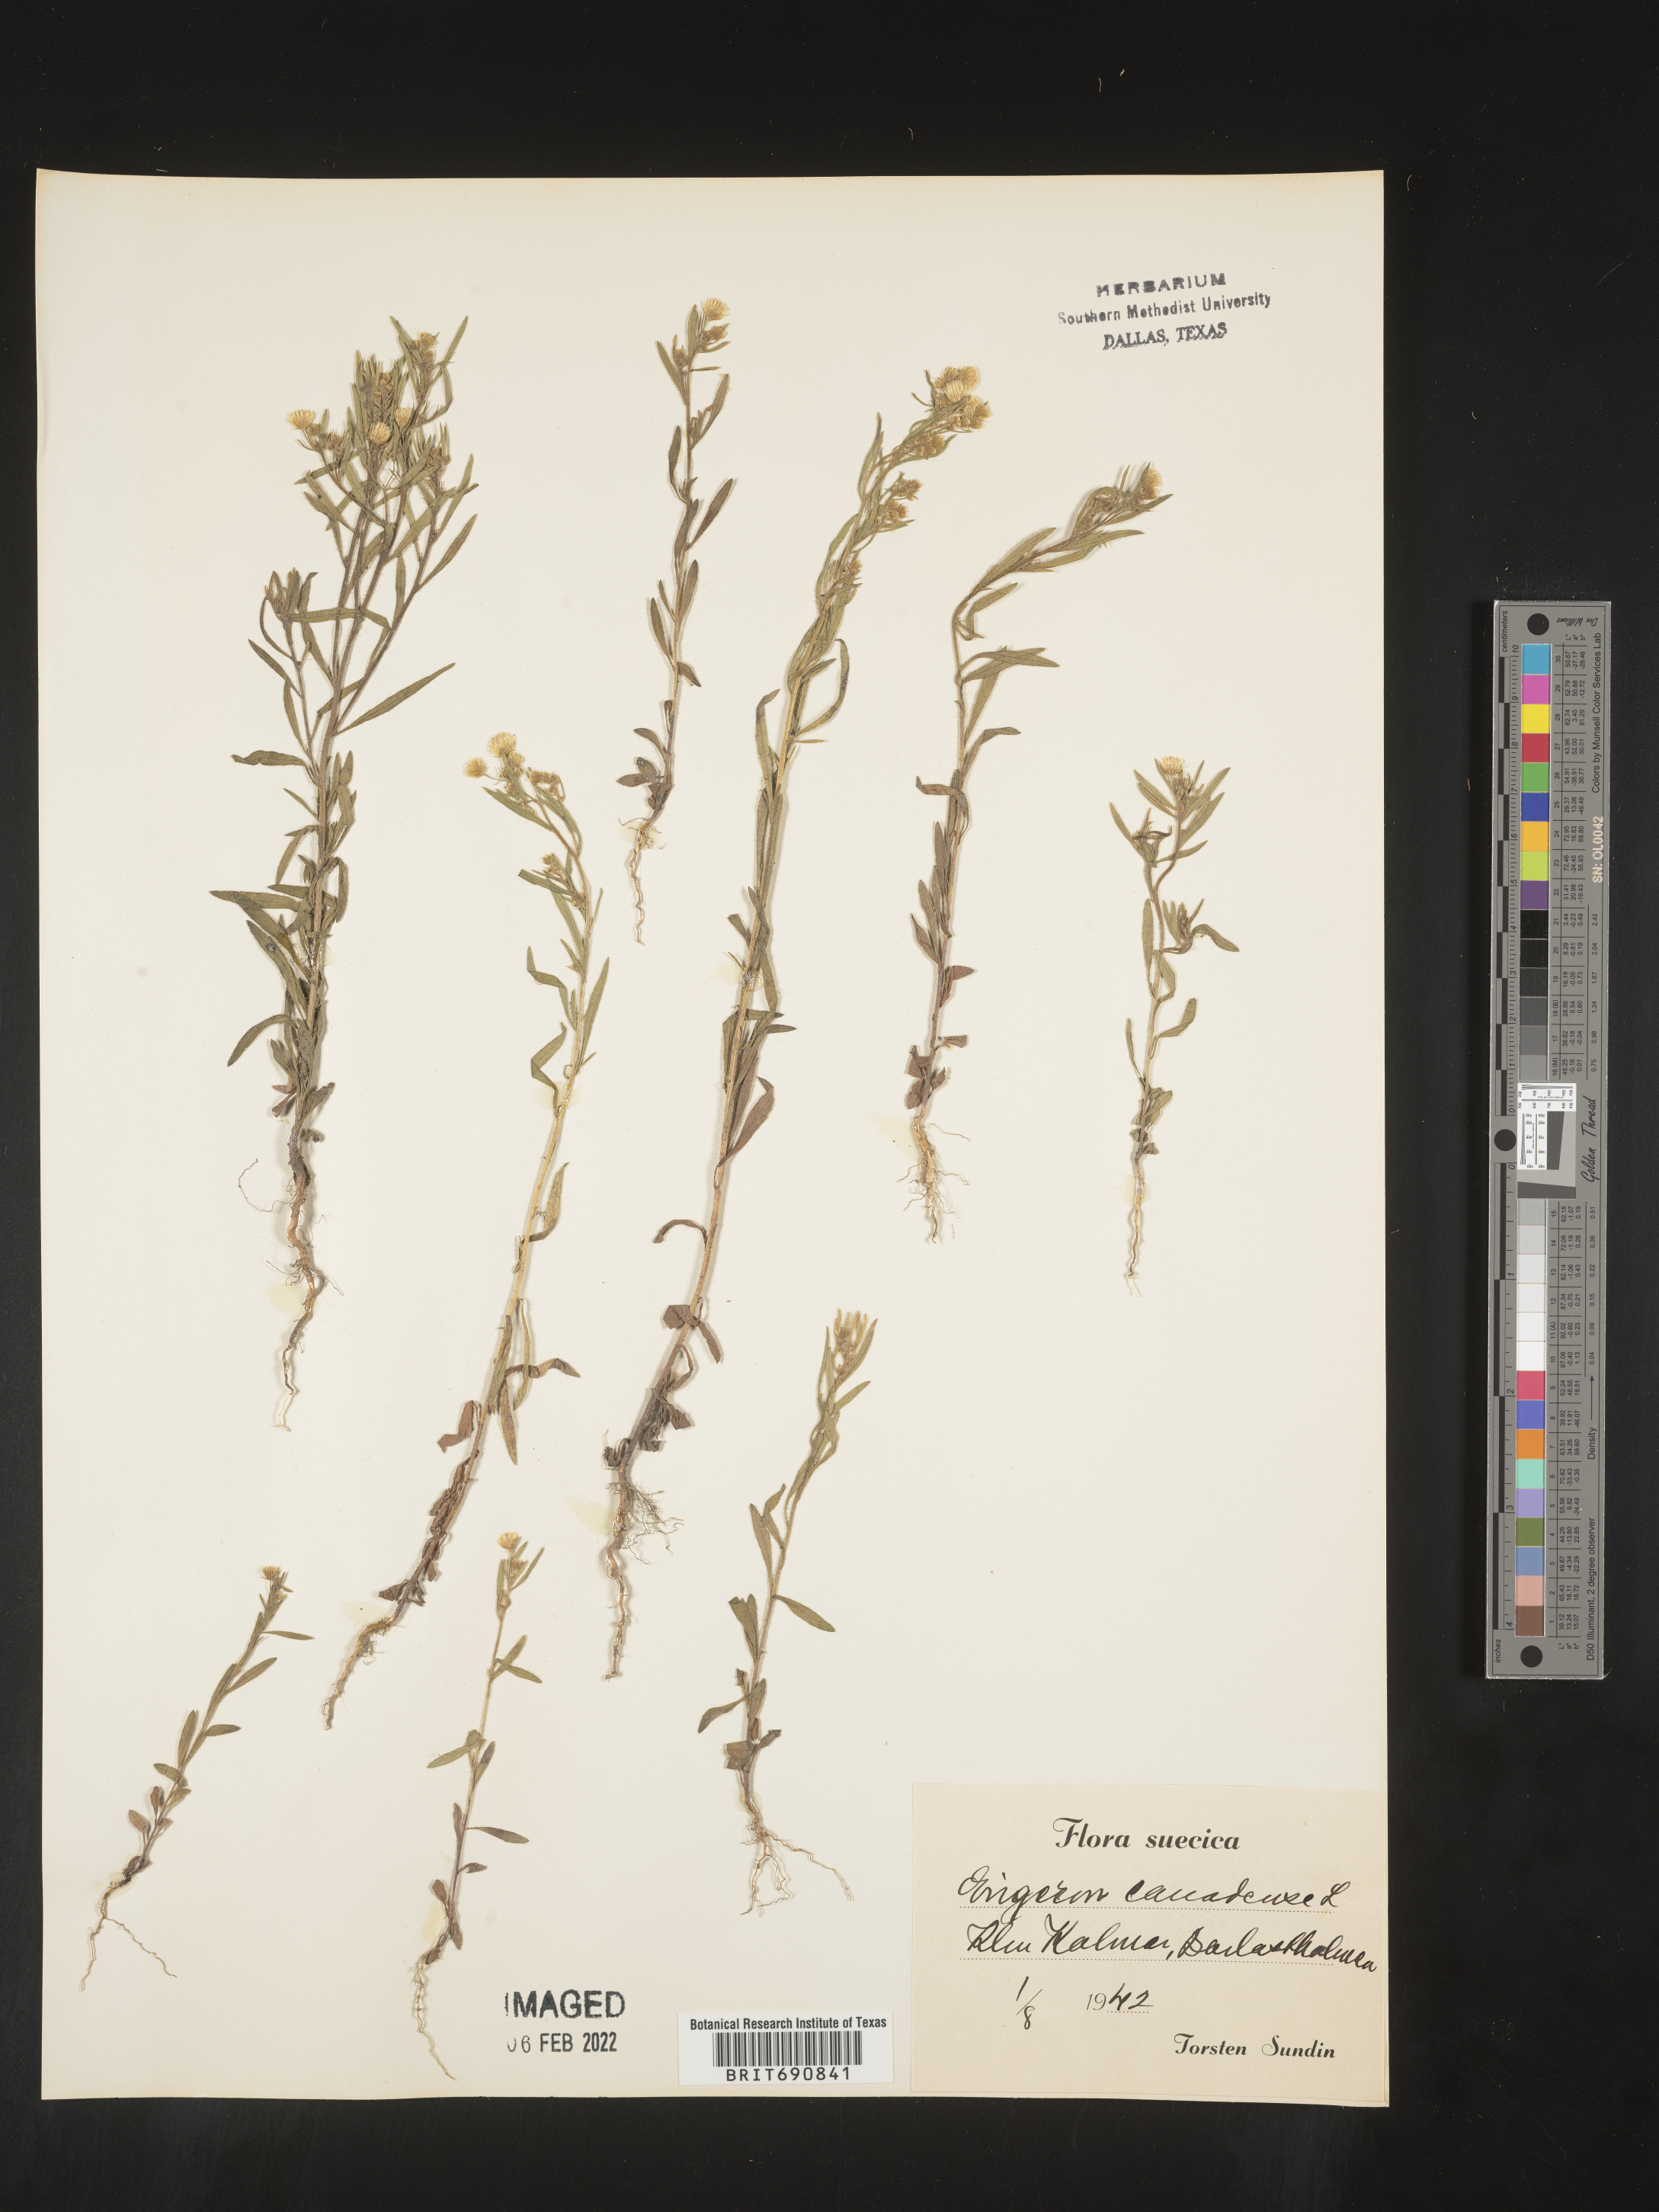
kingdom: Plantae
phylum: Tracheophyta
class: Magnoliopsida
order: Asterales
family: Asteraceae
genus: Conyza
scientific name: Conyza
